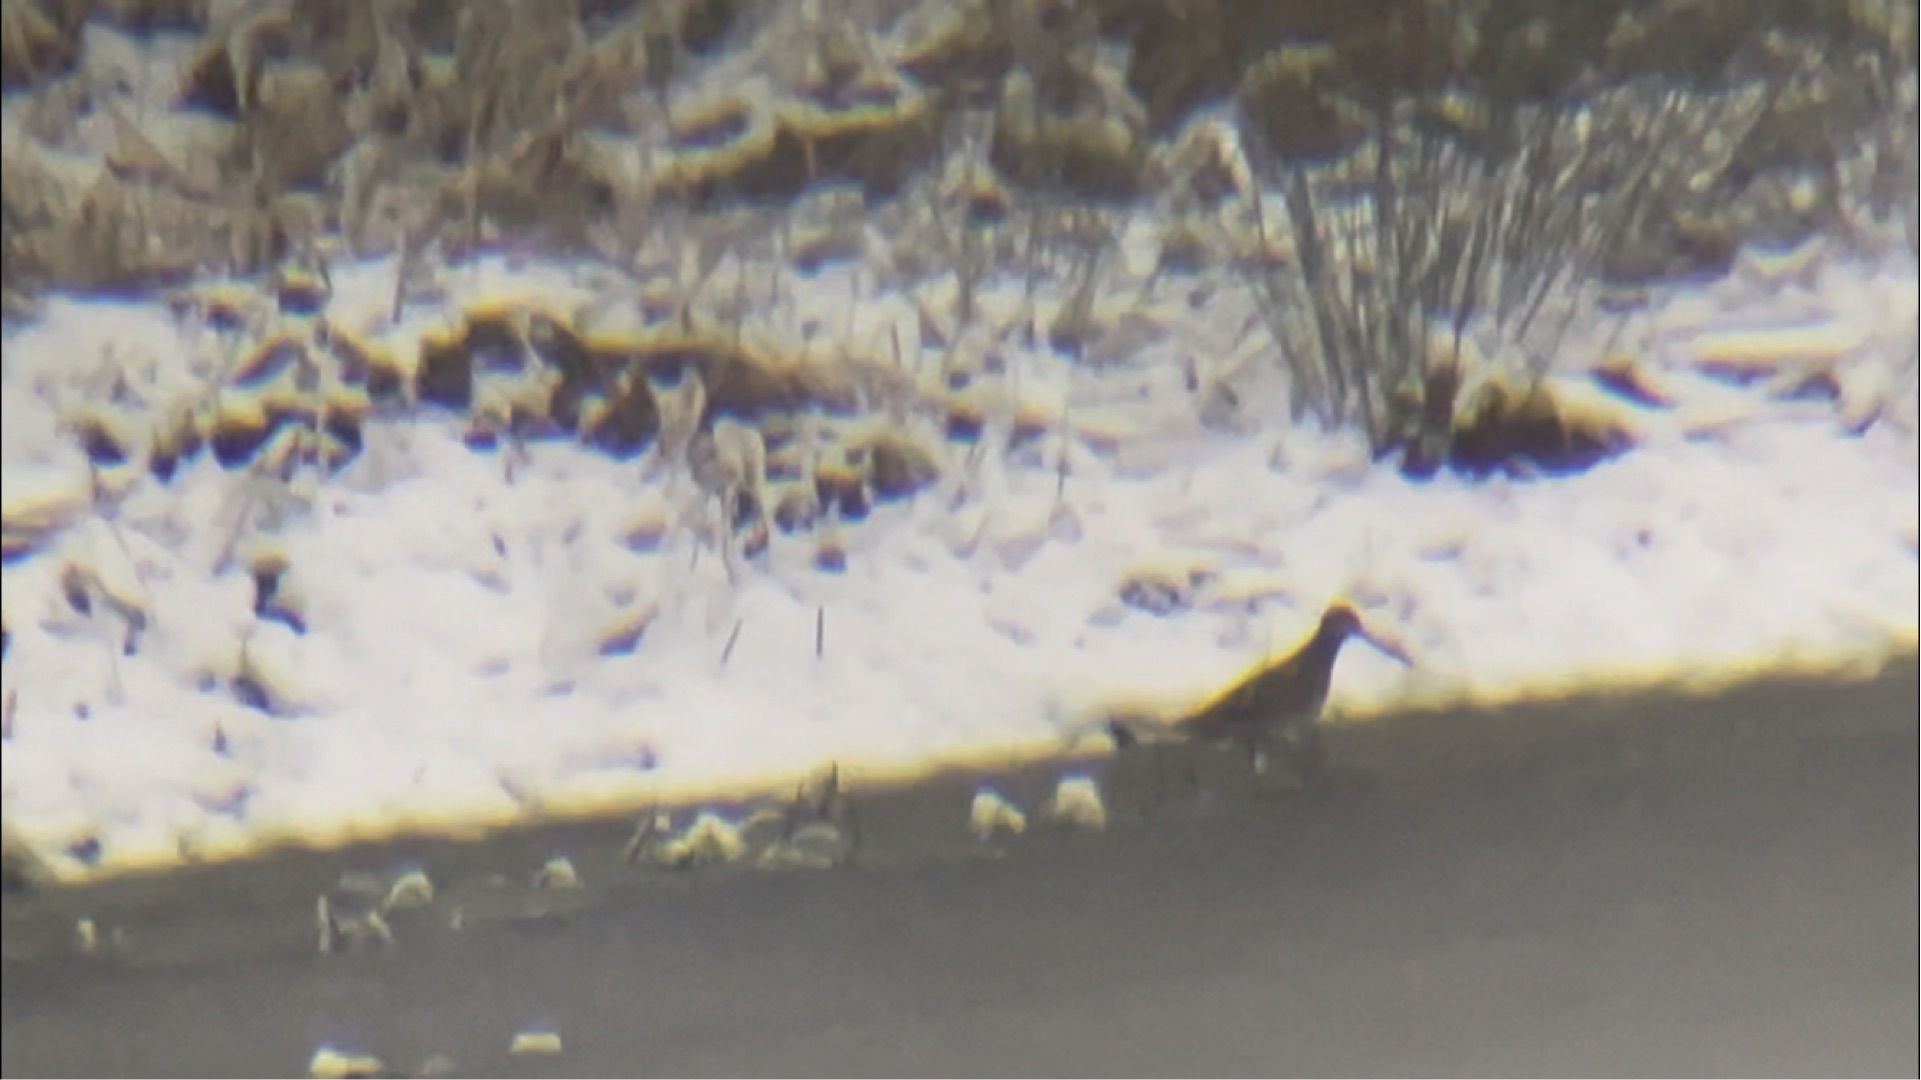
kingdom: Animalia
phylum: Chordata
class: Aves
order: Charadriiformes
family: Scolopacidae
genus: Gallinago
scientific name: Gallinago gallinago
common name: Dobbeltbekkasin
